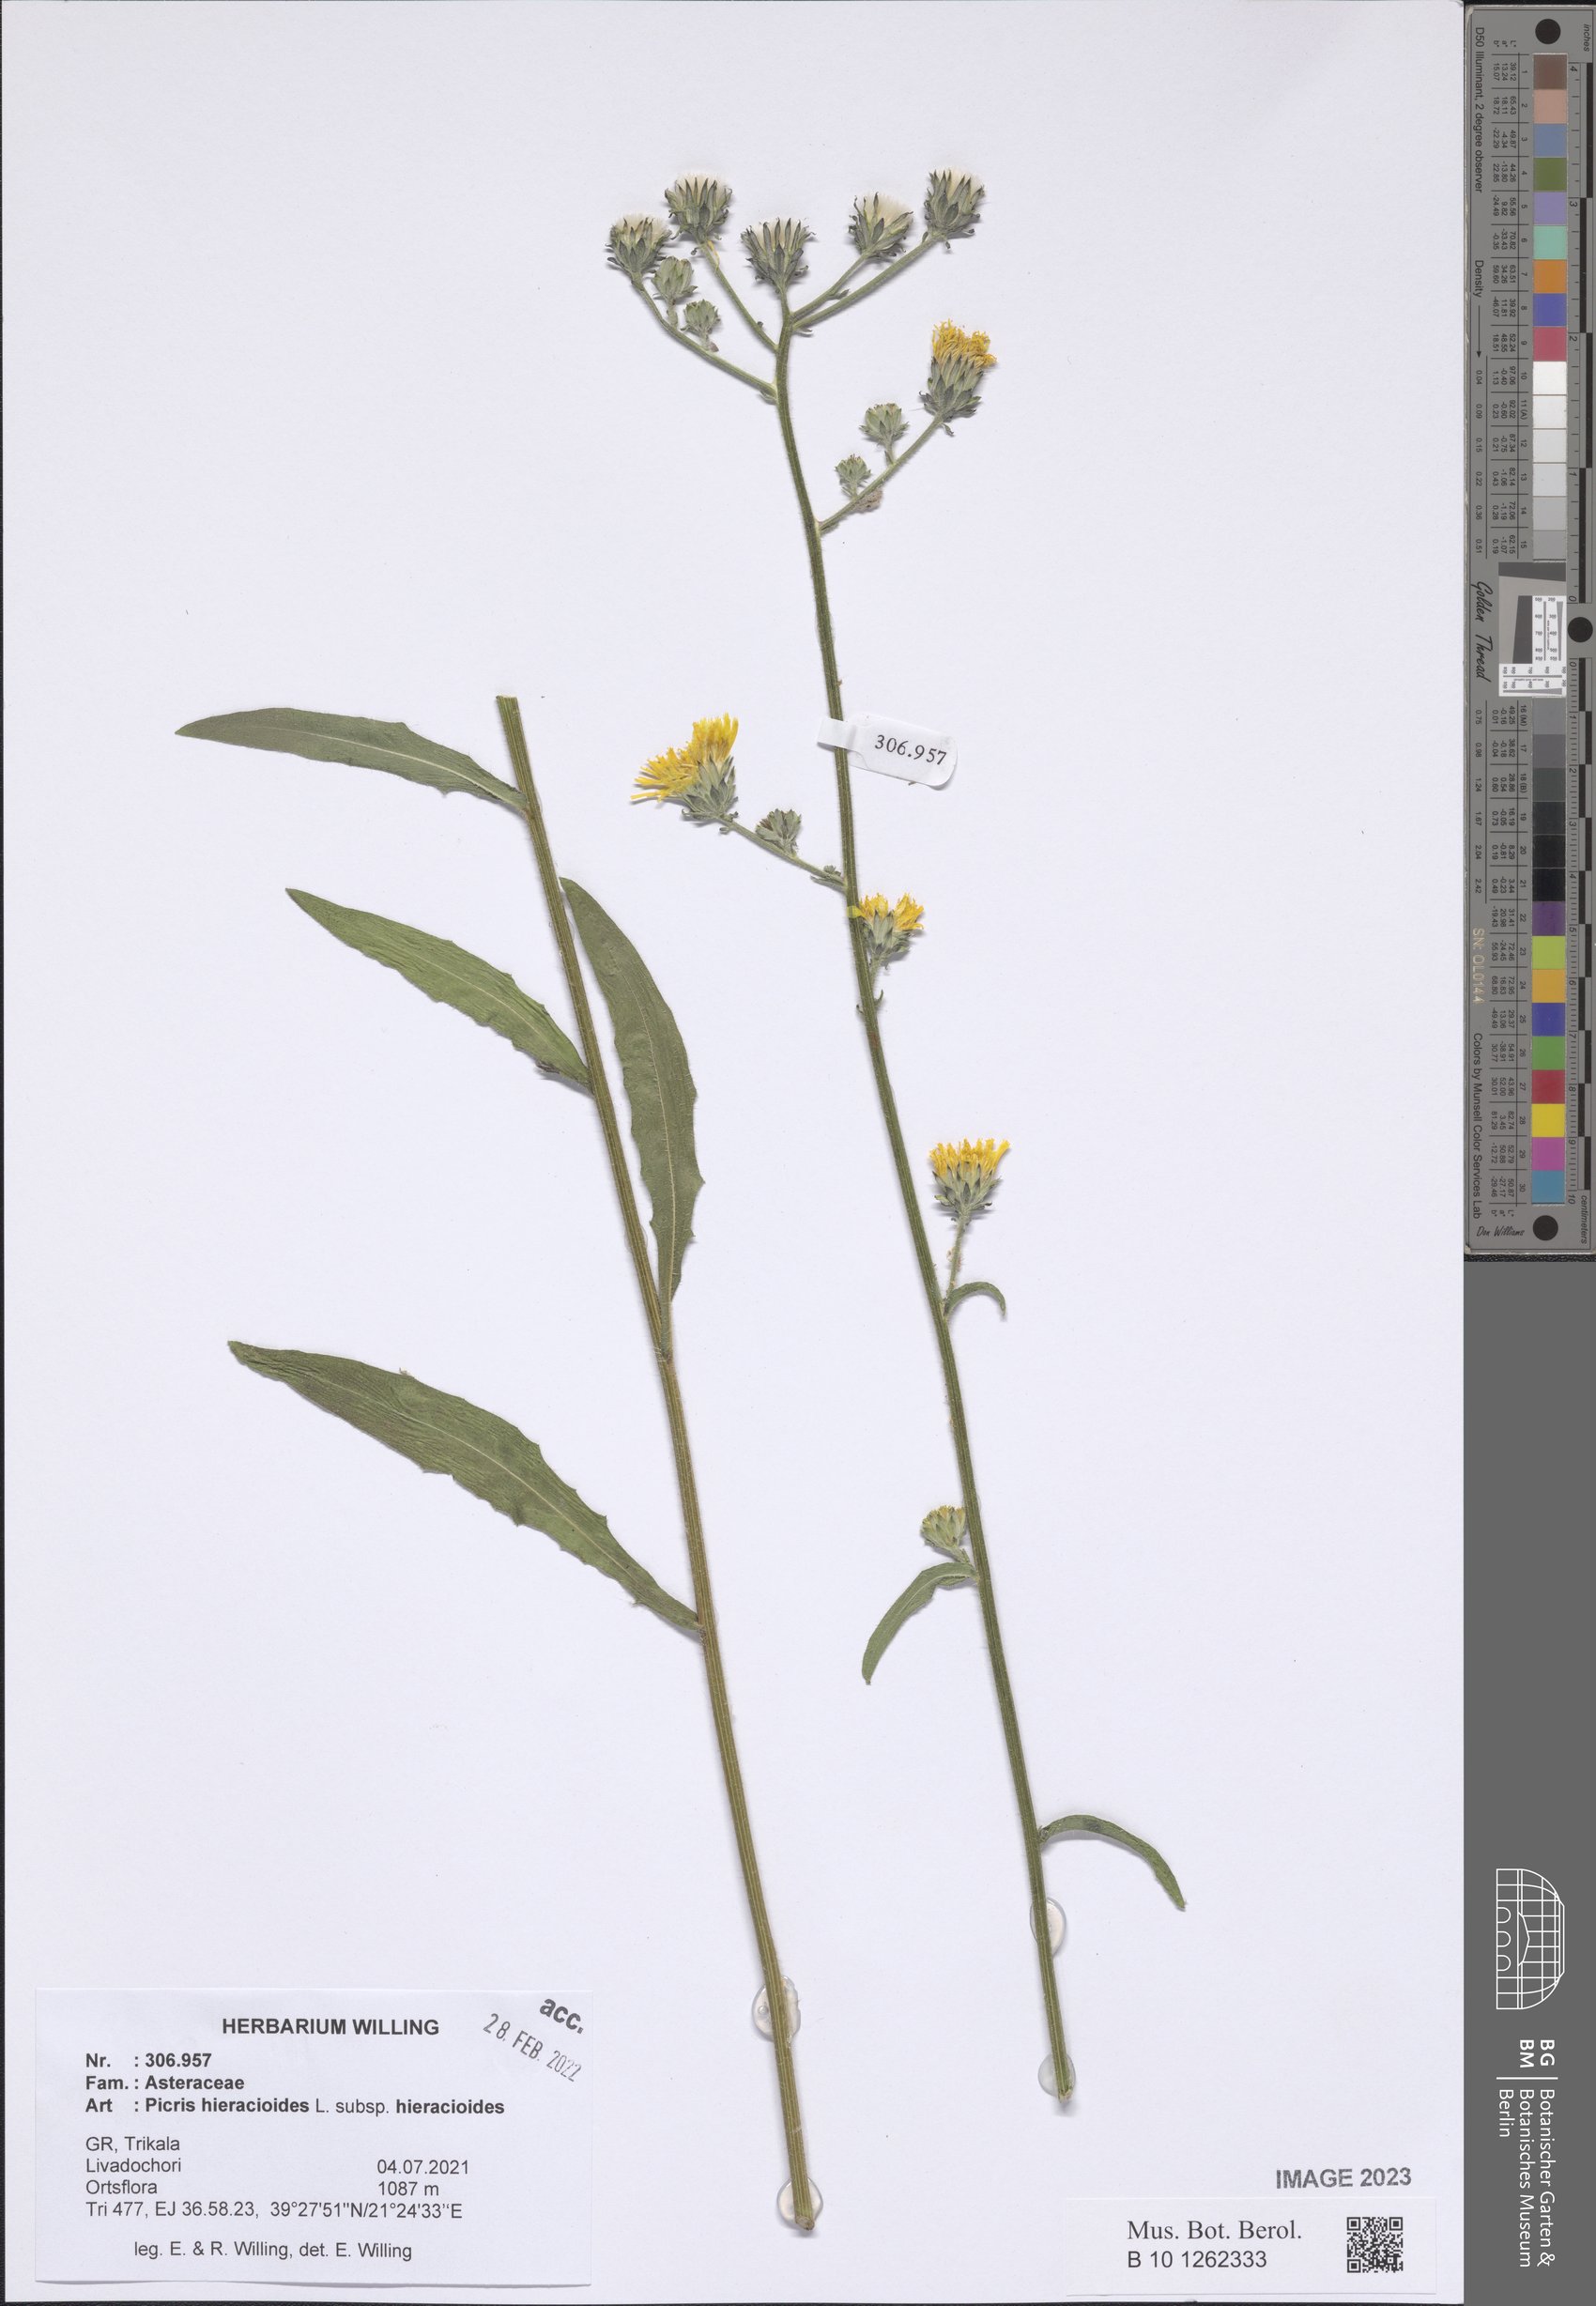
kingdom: Plantae
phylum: Tracheophyta
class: Magnoliopsida
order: Asterales
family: Asteraceae
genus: Picris
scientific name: Picris hieracioides
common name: Hawkweed oxtongue
